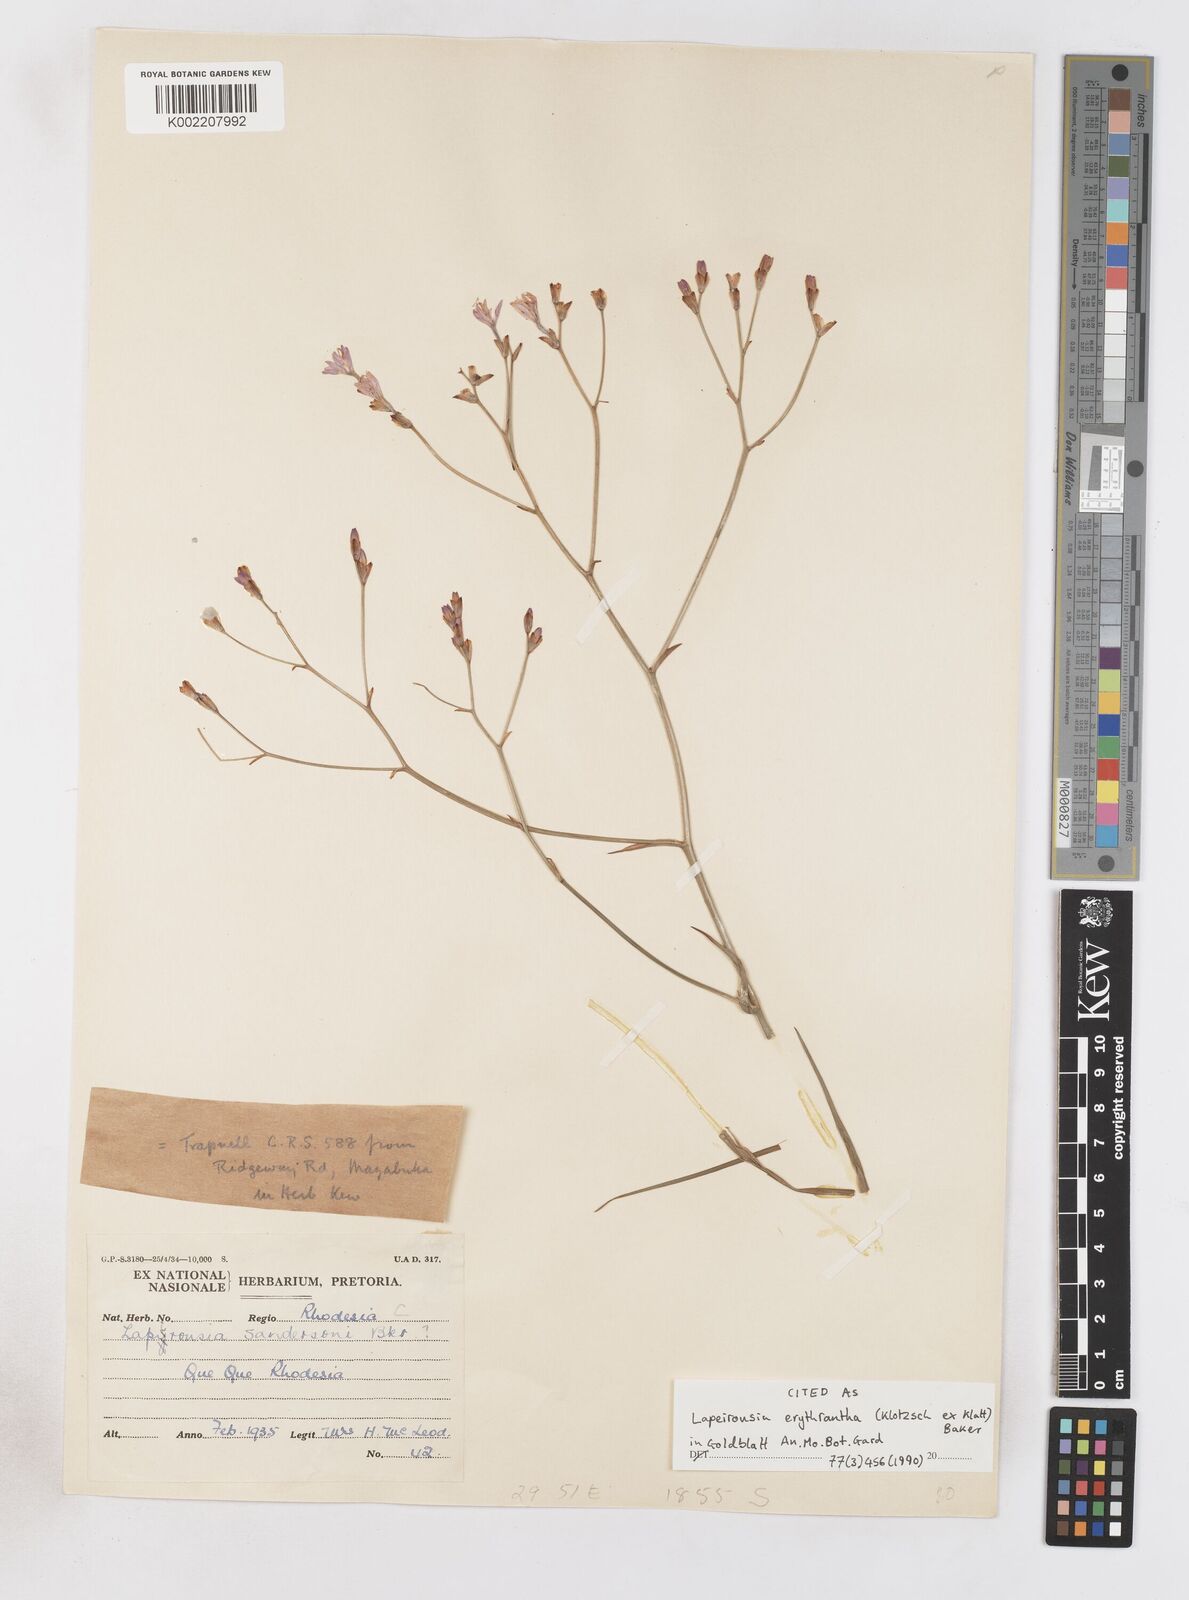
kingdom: Plantae
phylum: Tracheophyta
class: Liliopsida
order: Asparagales
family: Iridaceae
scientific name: Iridaceae
